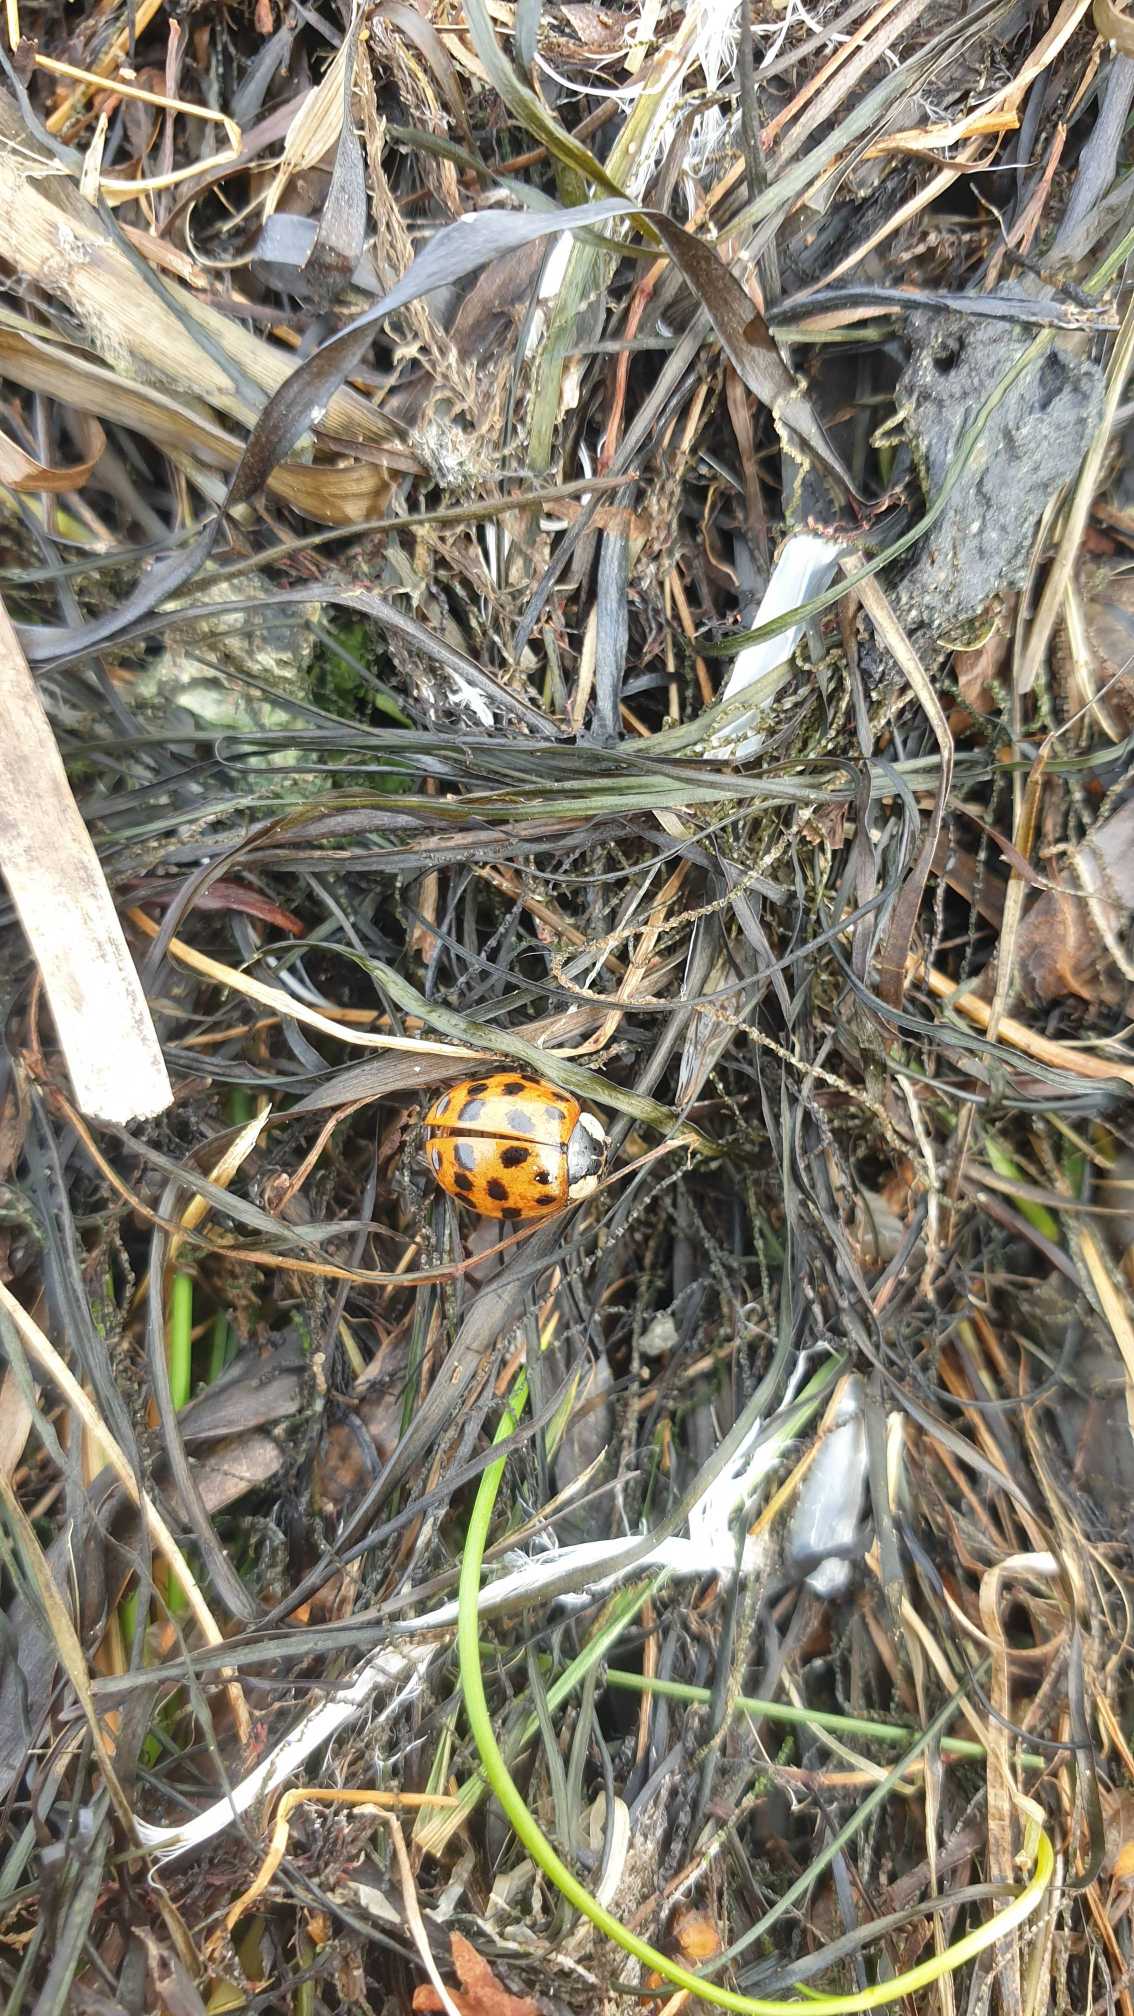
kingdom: Animalia
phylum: Arthropoda
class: Insecta
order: Coleoptera
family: Coccinellidae
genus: Harmonia
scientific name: Harmonia axyridis
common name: Harlekinmariehøne
